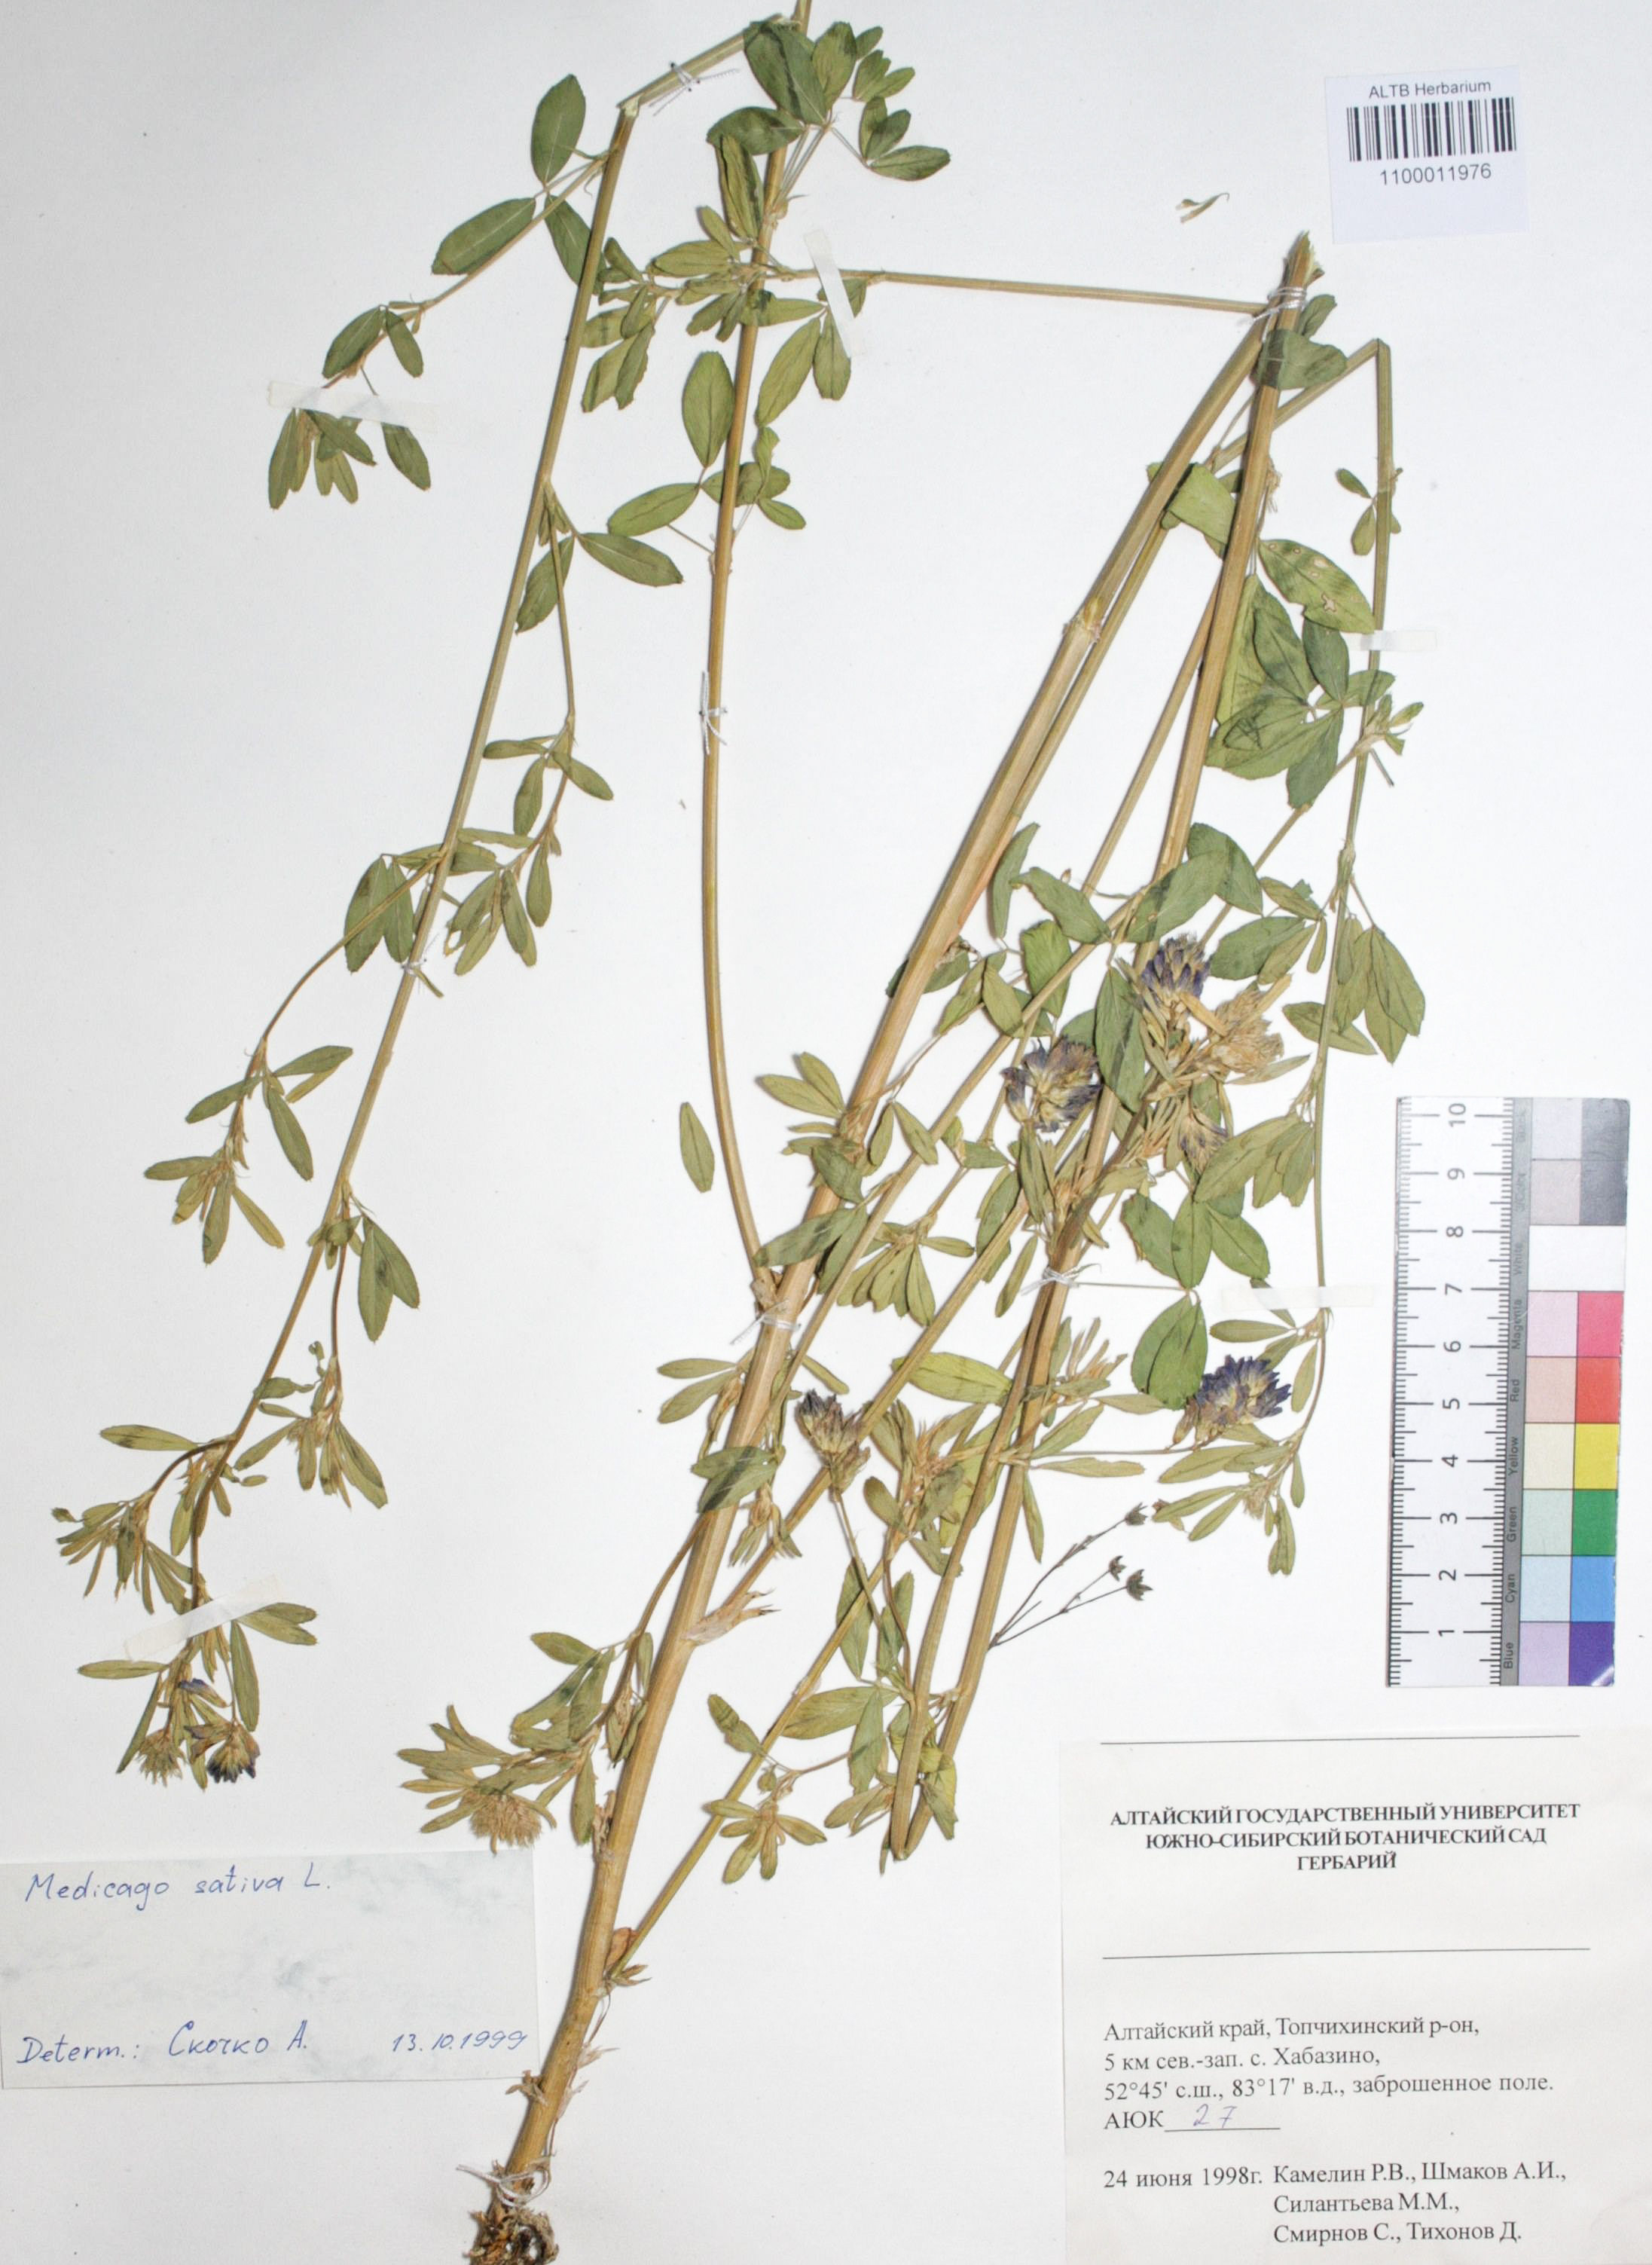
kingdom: Plantae
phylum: Tracheophyta
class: Magnoliopsida
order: Fabales
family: Fabaceae
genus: Medicago
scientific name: Medicago sativa
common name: Alfalfa
